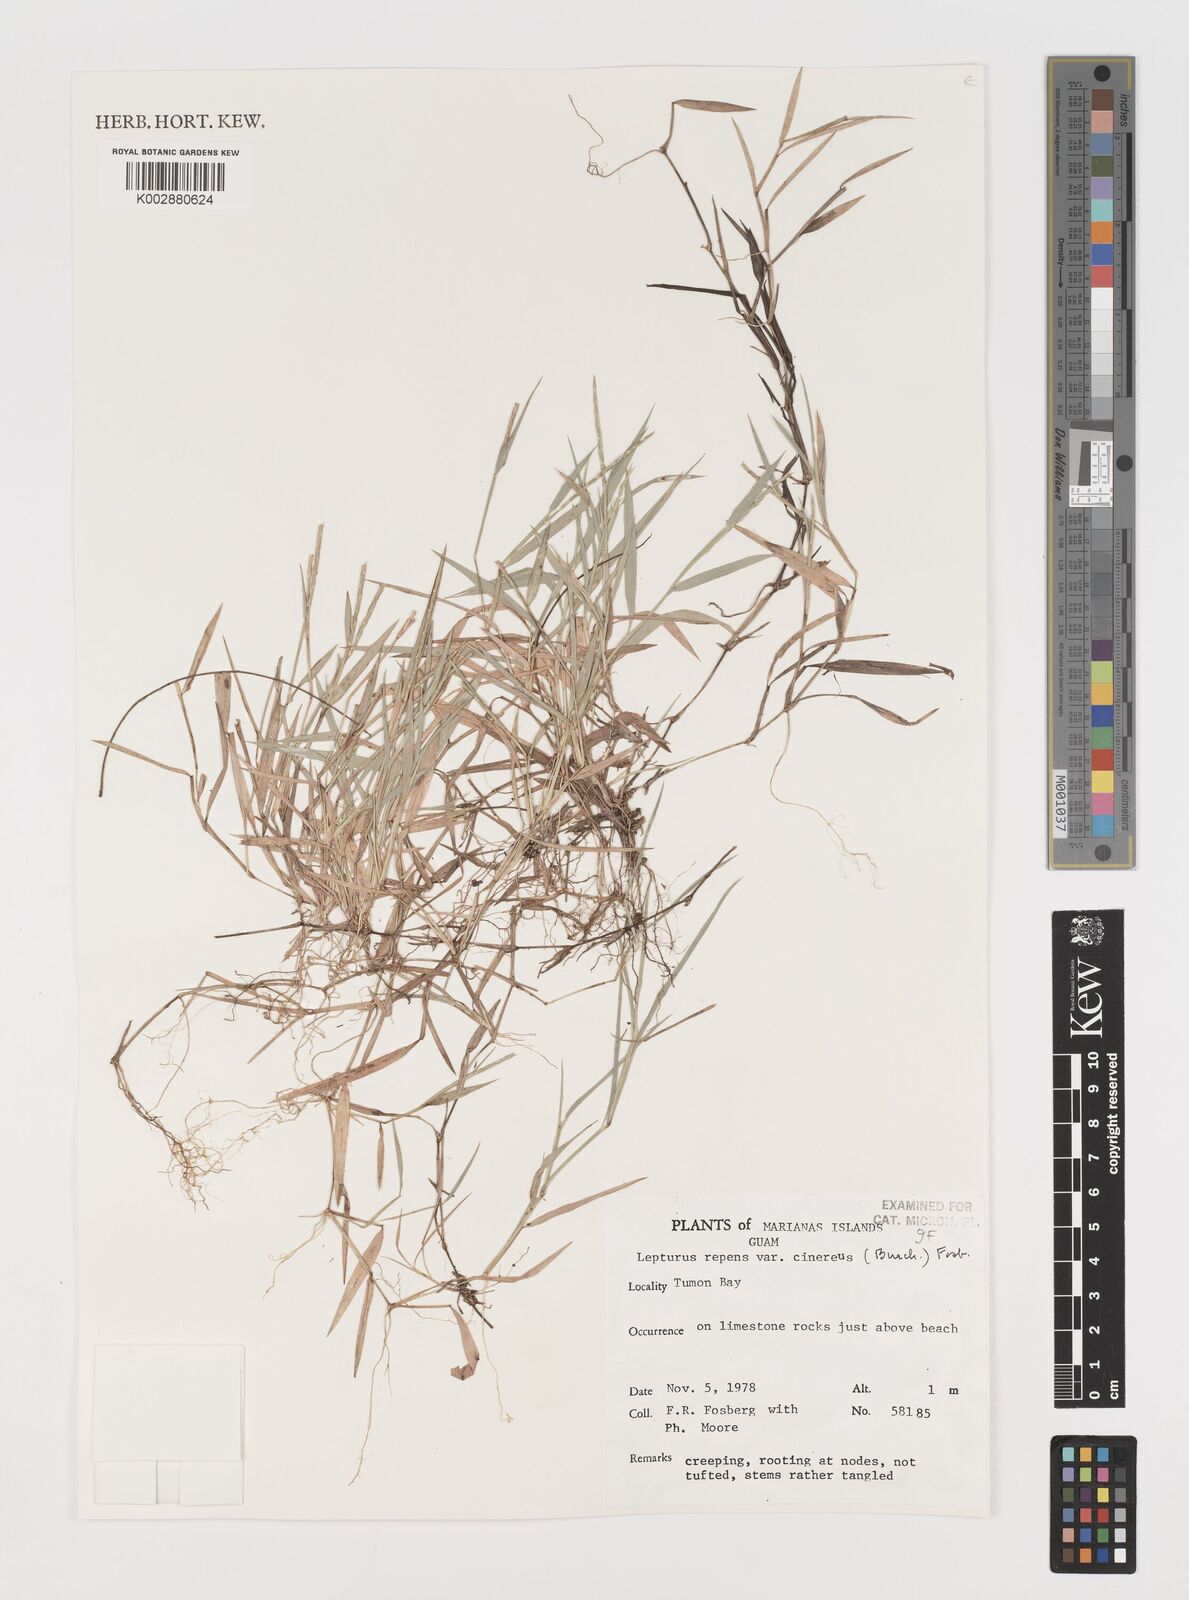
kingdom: Plantae
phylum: Tracheophyta
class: Liliopsida
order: Poales
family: Poaceae
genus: Lepturus
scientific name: Lepturus repens
